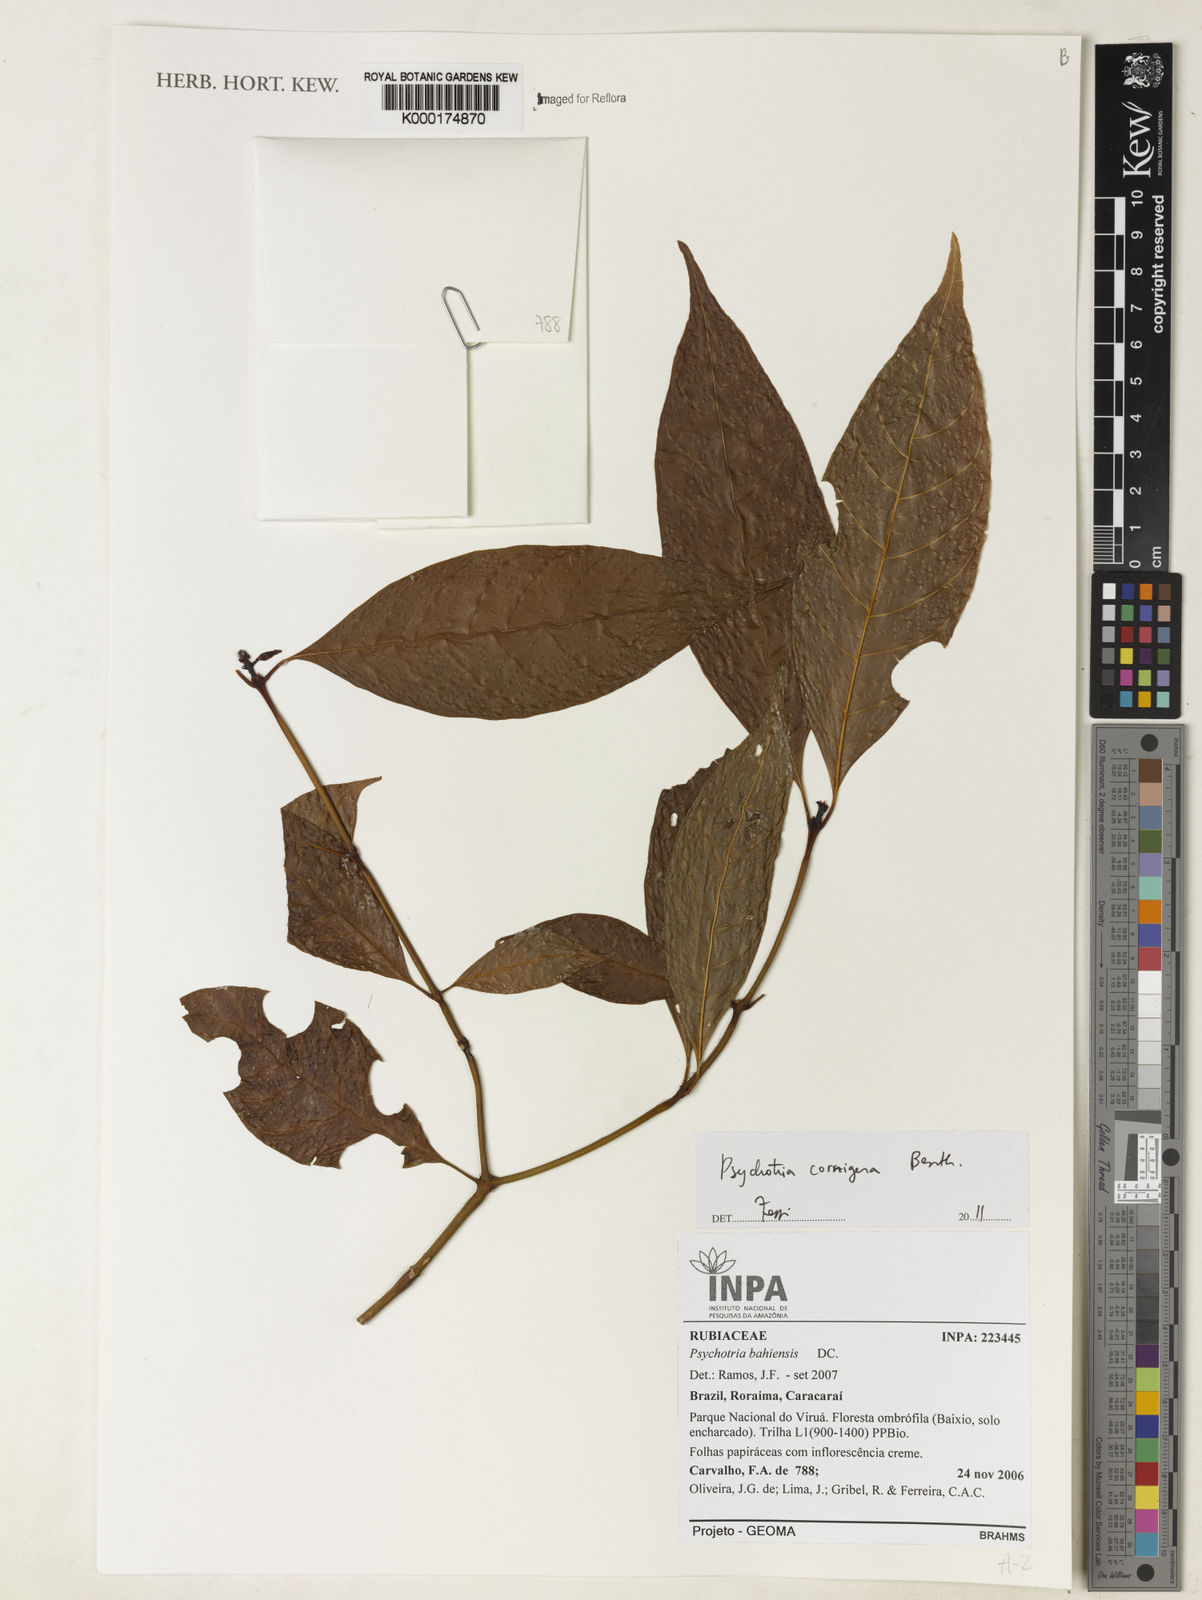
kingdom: Plantae
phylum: Tracheophyta
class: Magnoliopsida
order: Gentianales
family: Rubiaceae
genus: Palicourea
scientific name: Palicourea subcuspidata
